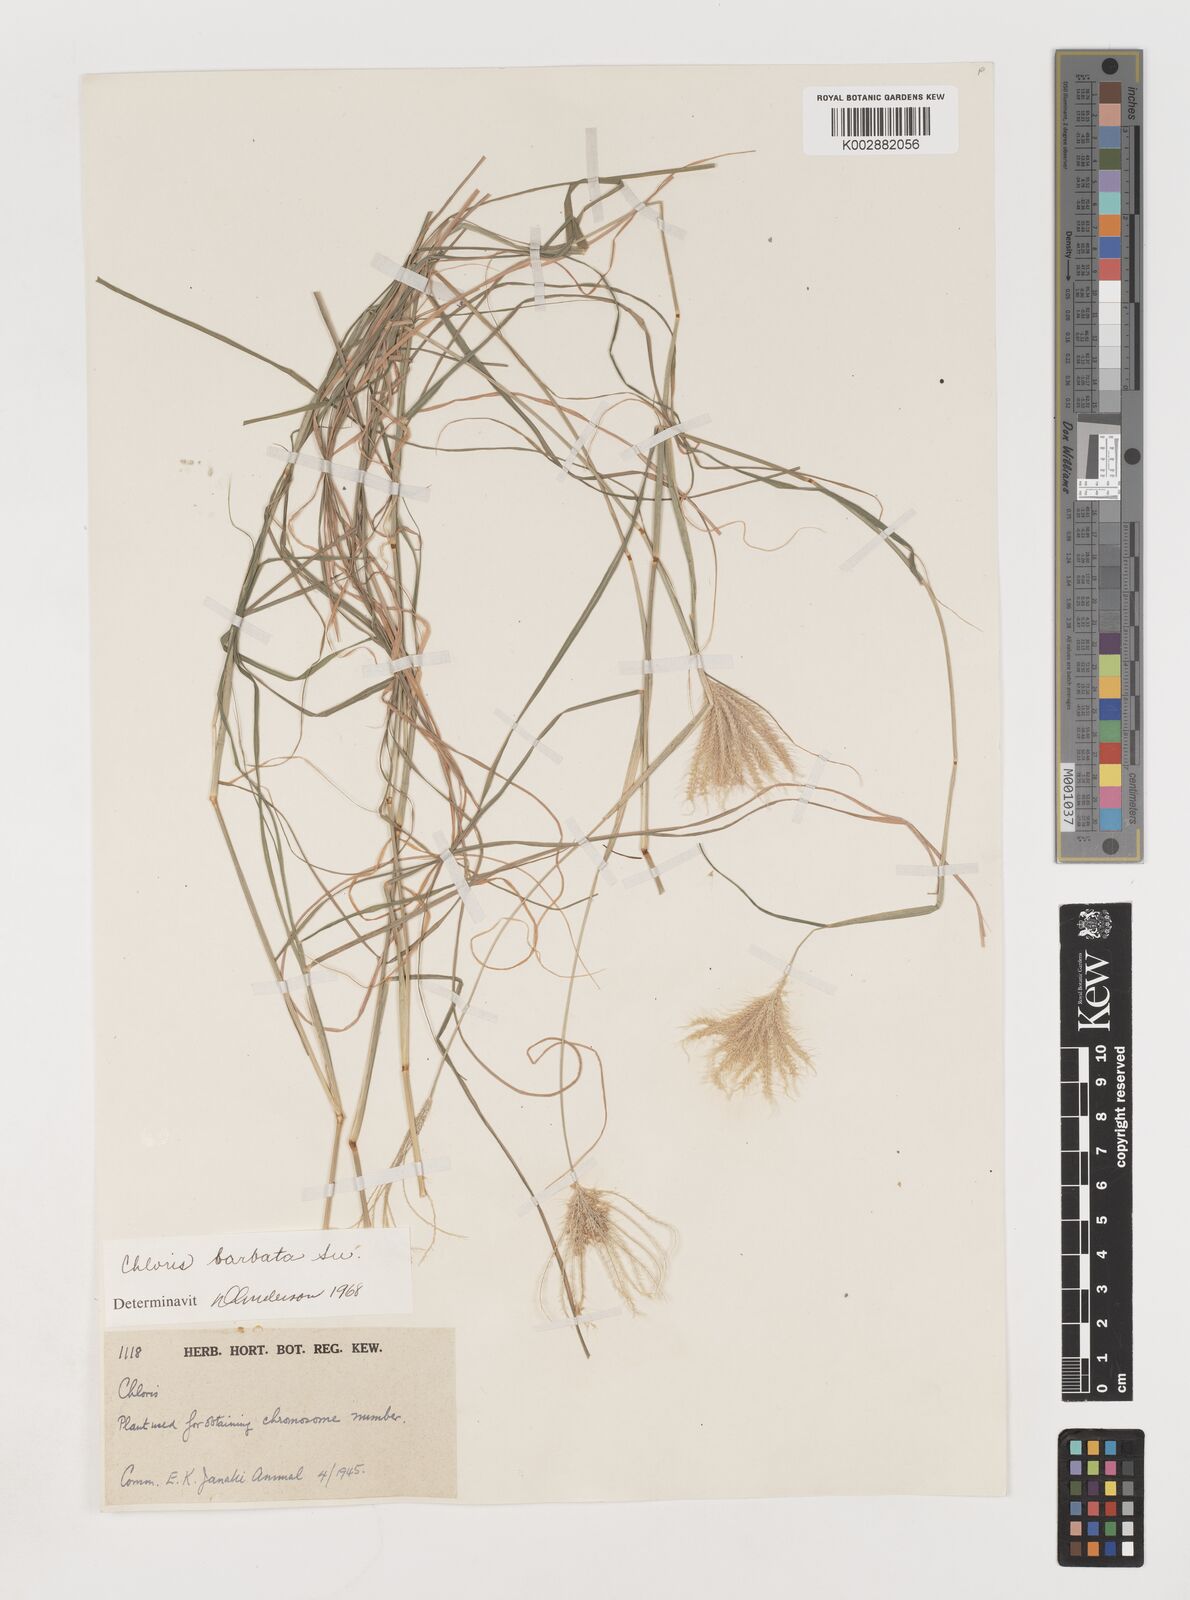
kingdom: Plantae
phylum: Tracheophyta
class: Liliopsida
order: Poales
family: Poaceae
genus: Chloris
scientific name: Chloris barbata
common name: Swollen fingergrass
